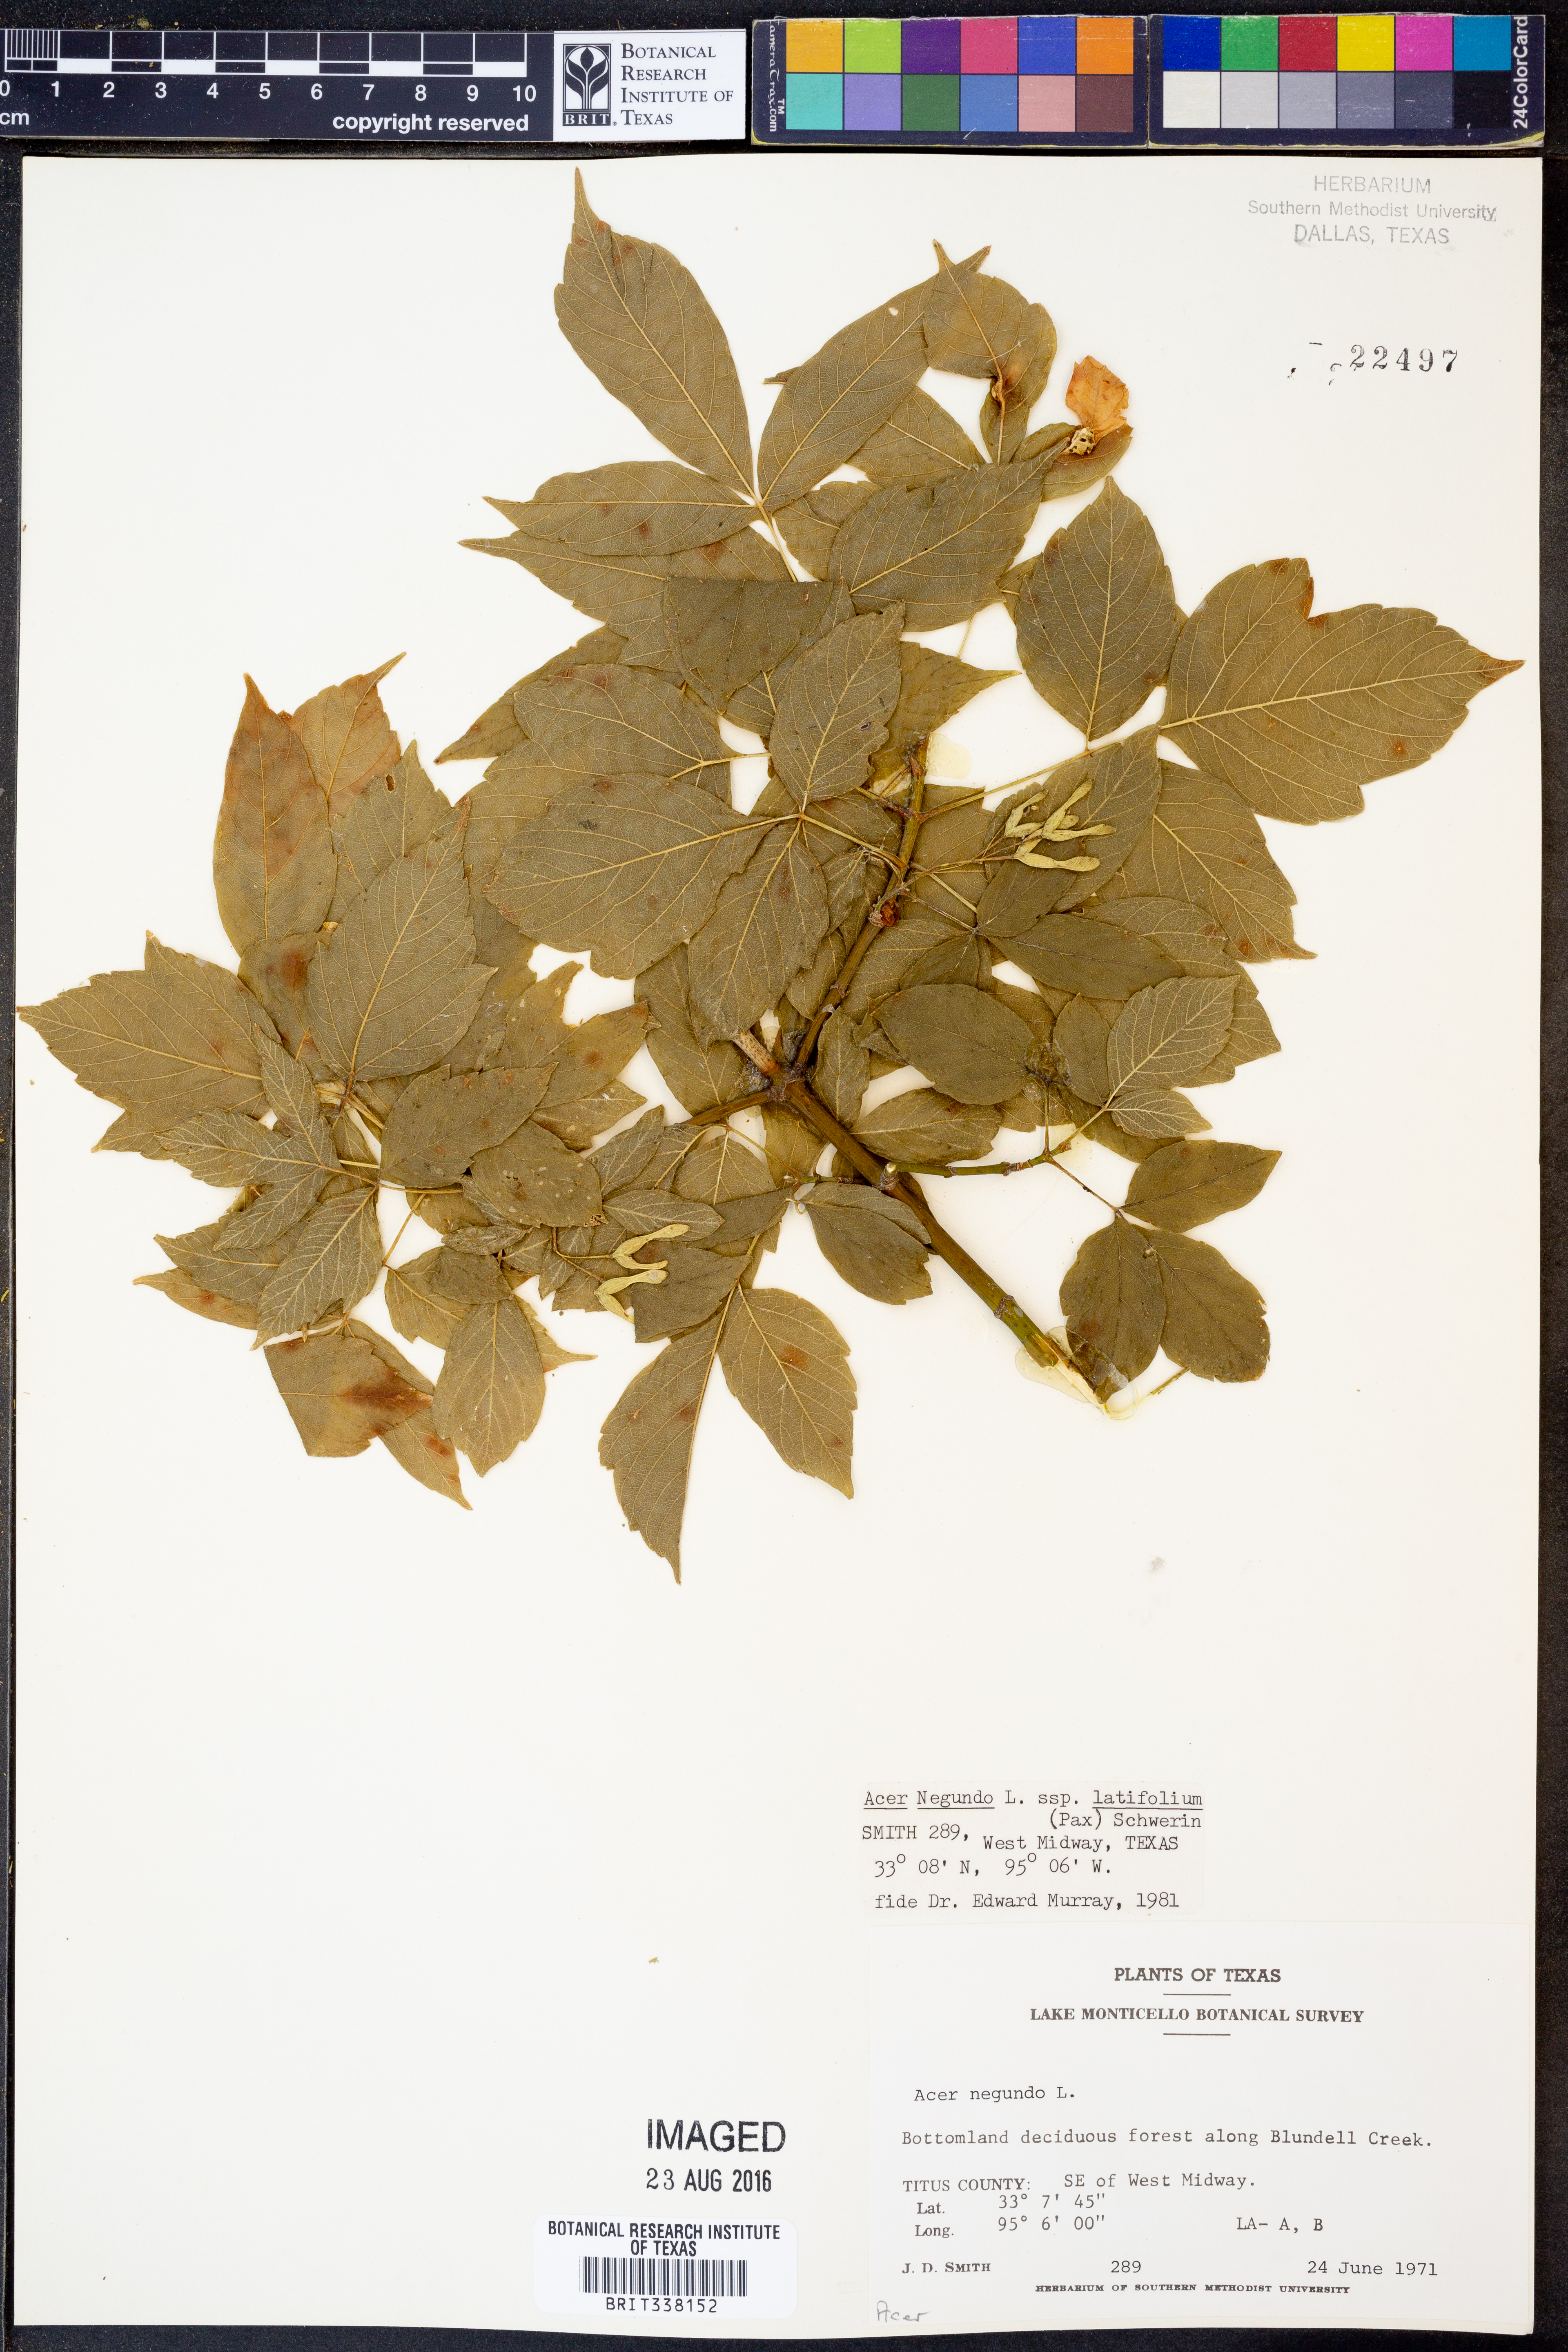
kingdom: Plantae
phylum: Tracheophyta
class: Magnoliopsida
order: Sapindales
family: Sapindaceae
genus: Acer
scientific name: Acer negundo
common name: Ashleaf maple
